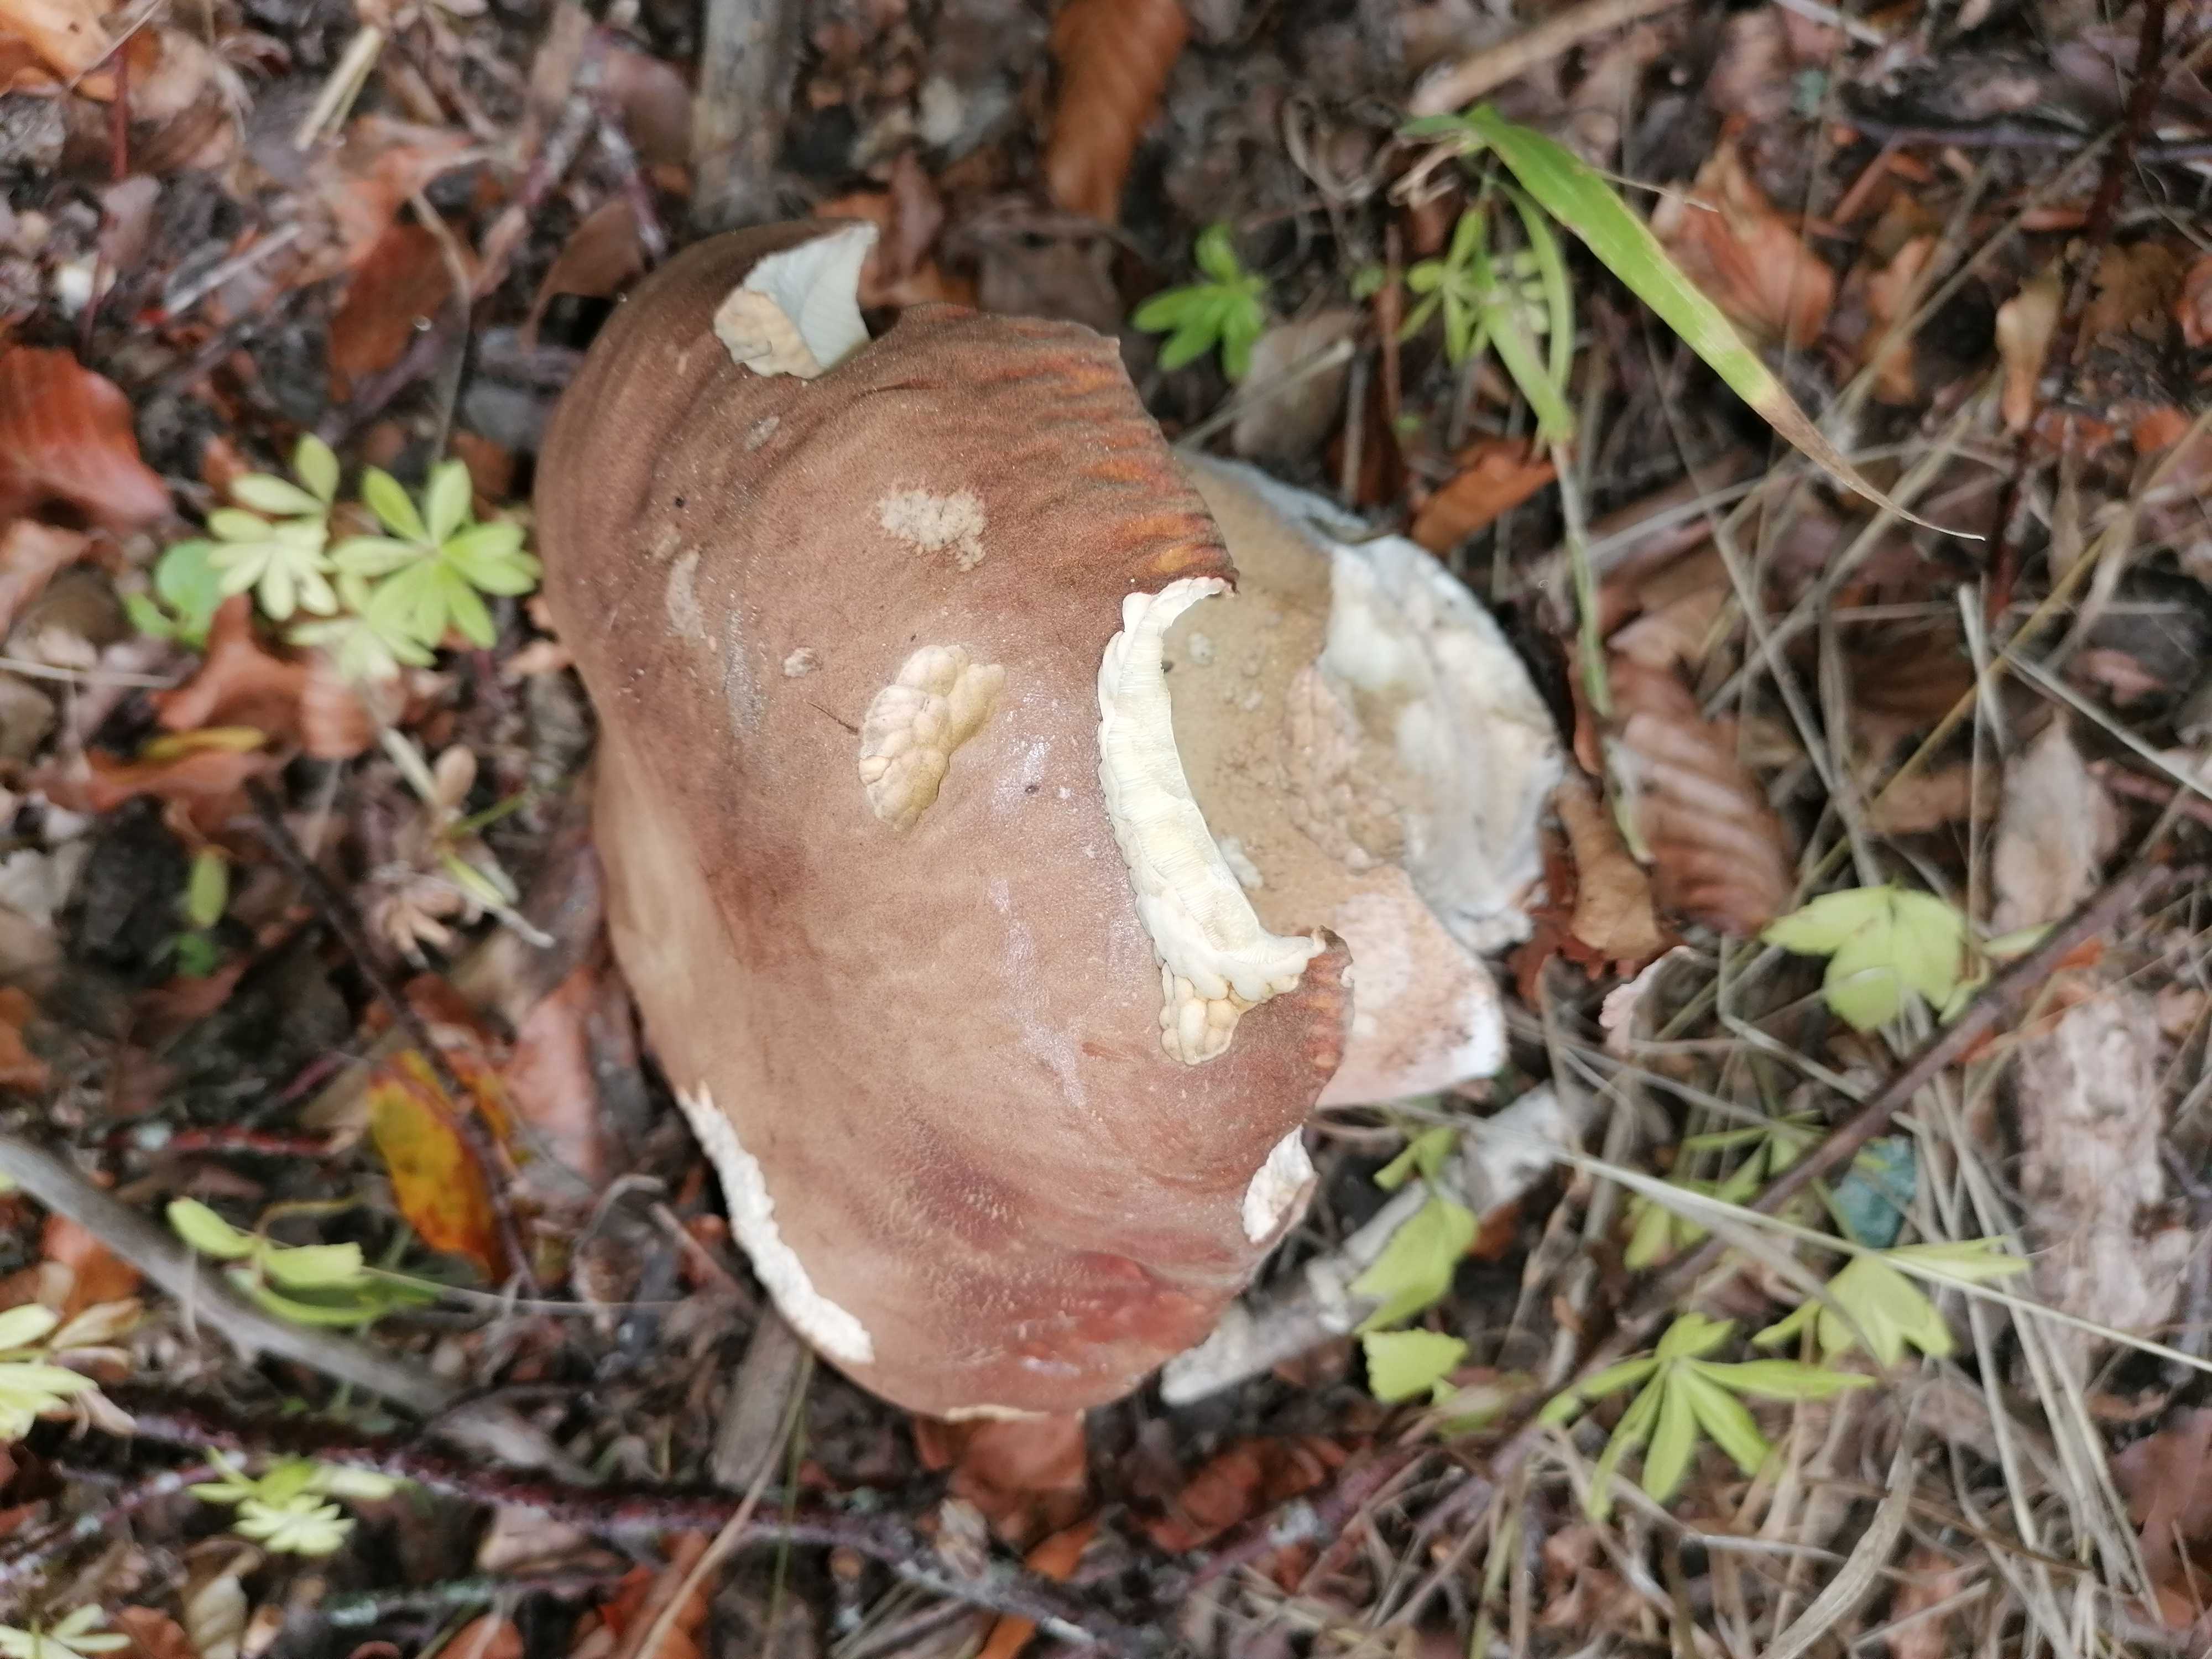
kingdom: Fungi
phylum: Basidiomycota
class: Agaricomycetes
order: Boletales
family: Boletaceae
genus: Boletus
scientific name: Boletus reticulatus
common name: sommer-rørhat
